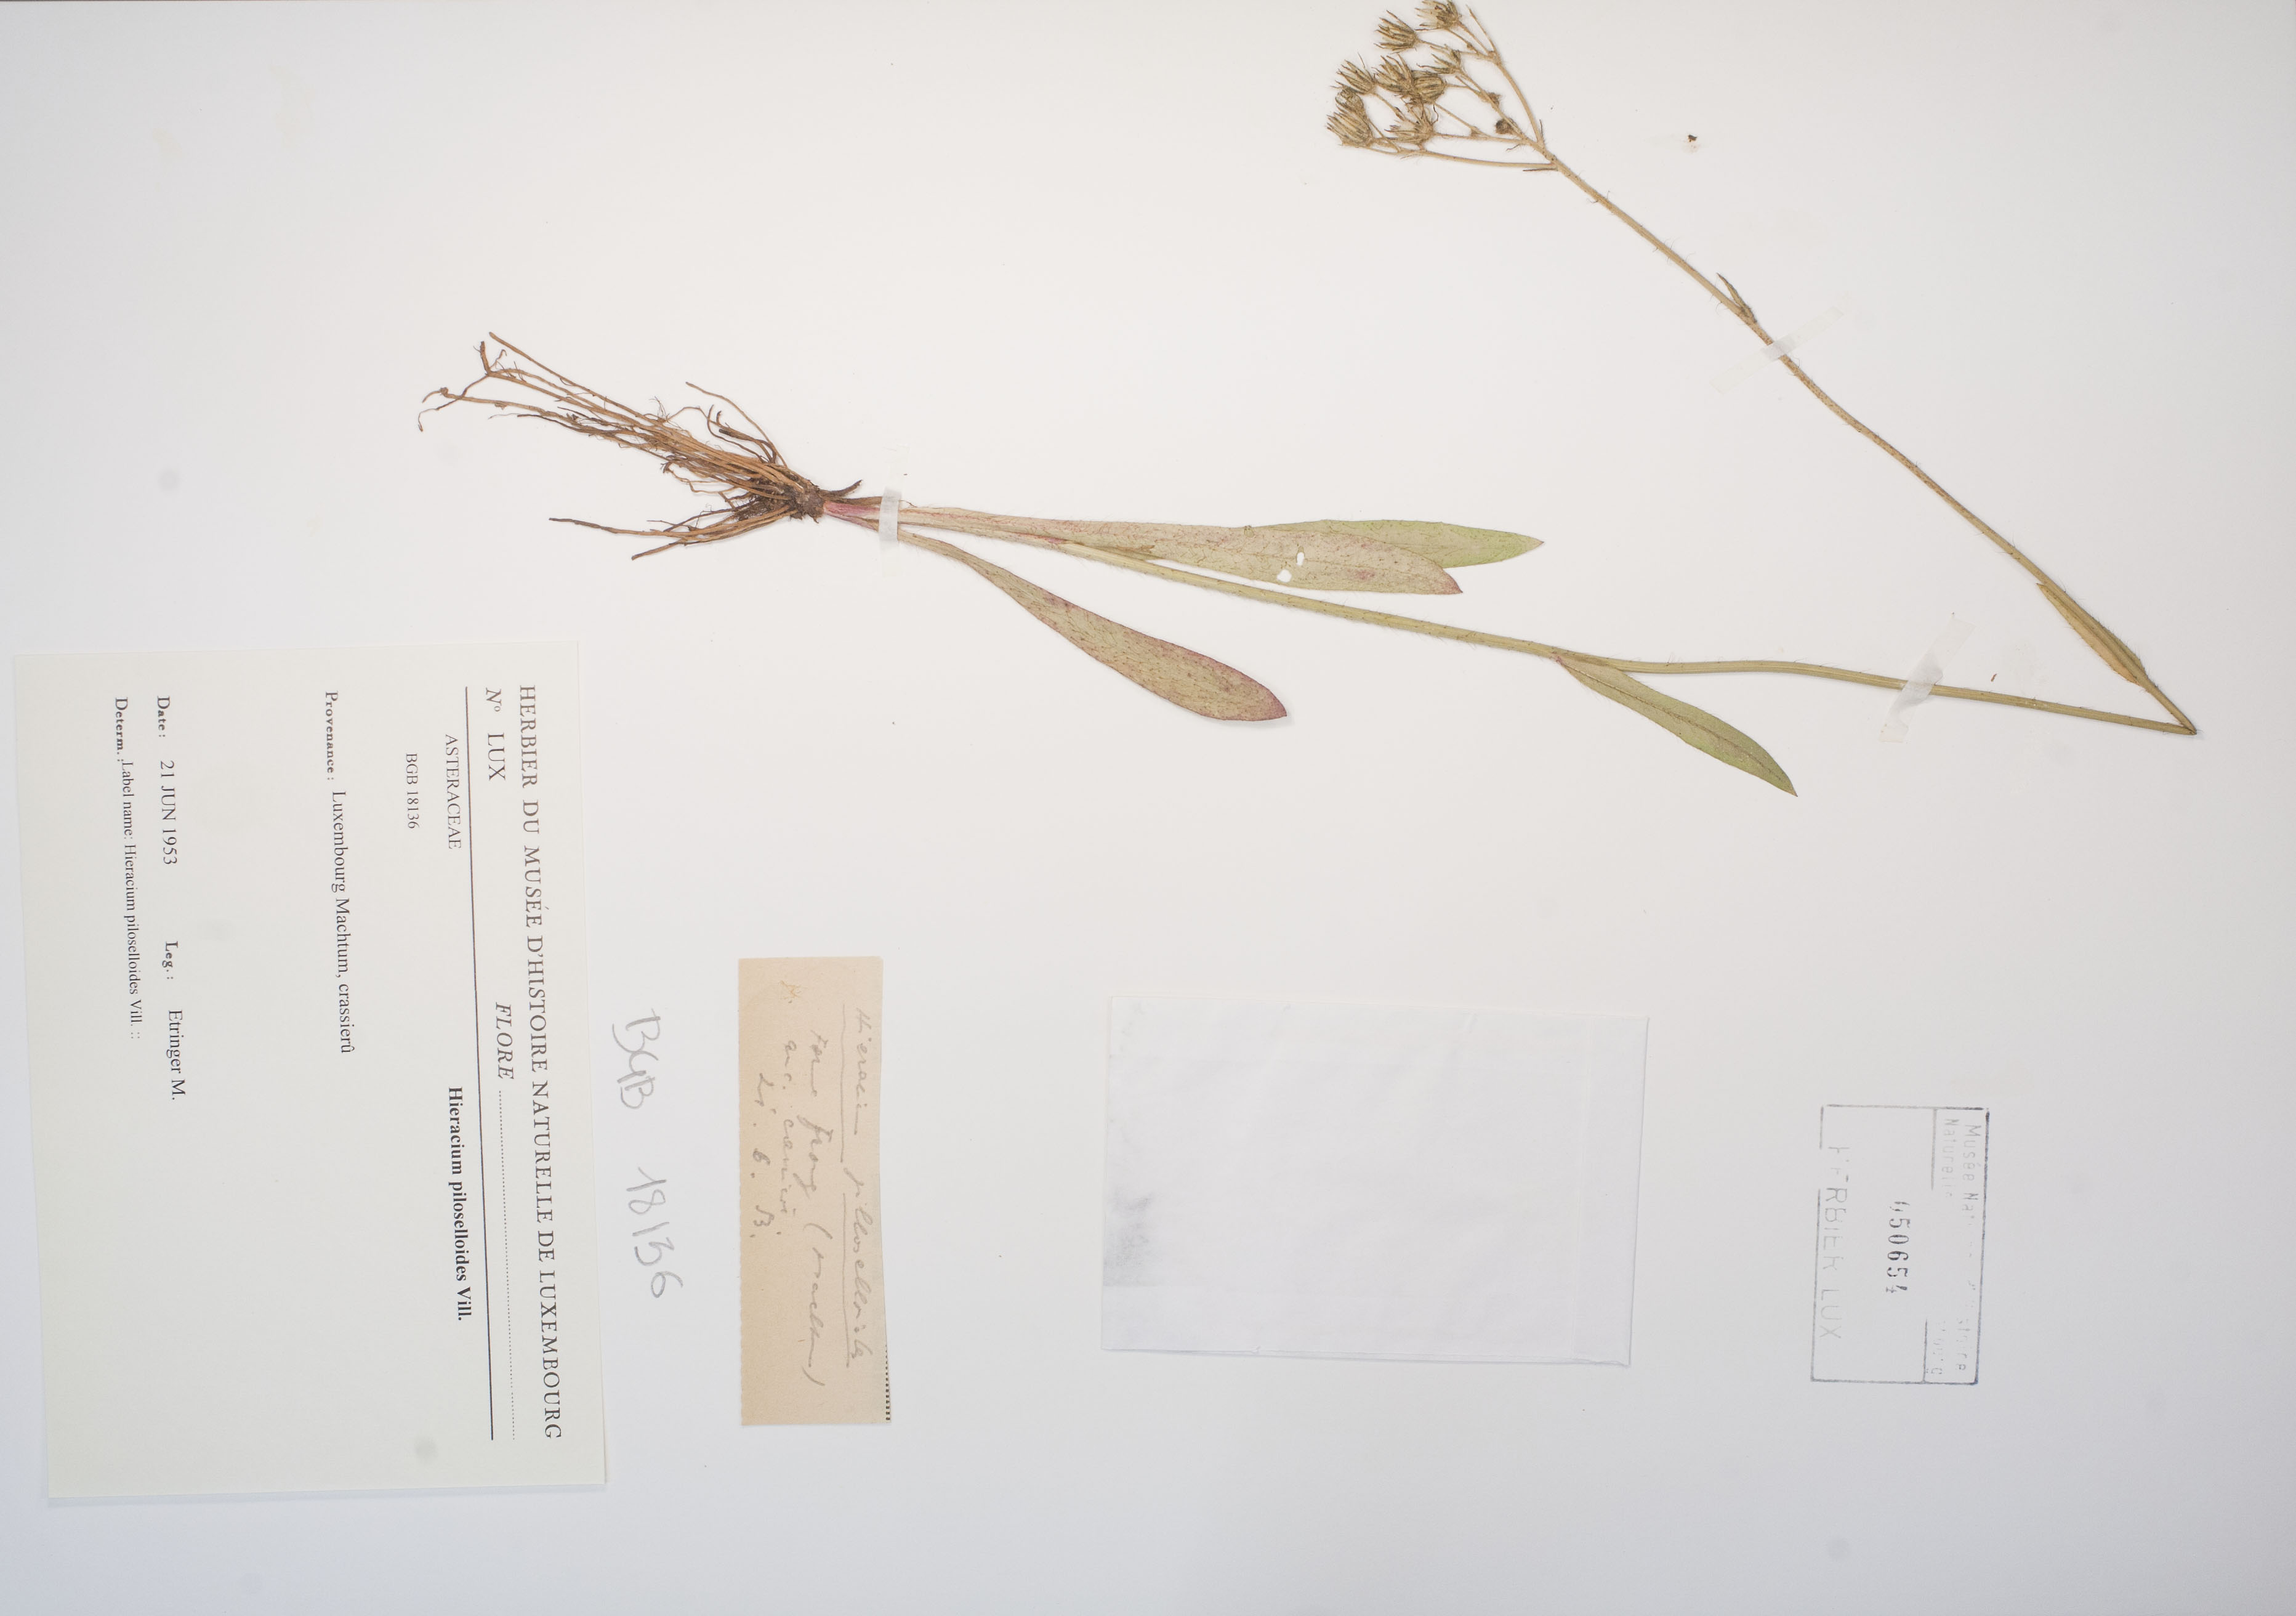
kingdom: Plantae
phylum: Tracheophyta
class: Magnoliopsida
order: Asterales
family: Asteraceae
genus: Pilosella
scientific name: Pilosella piloselloides
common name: Glaucous king-devil
